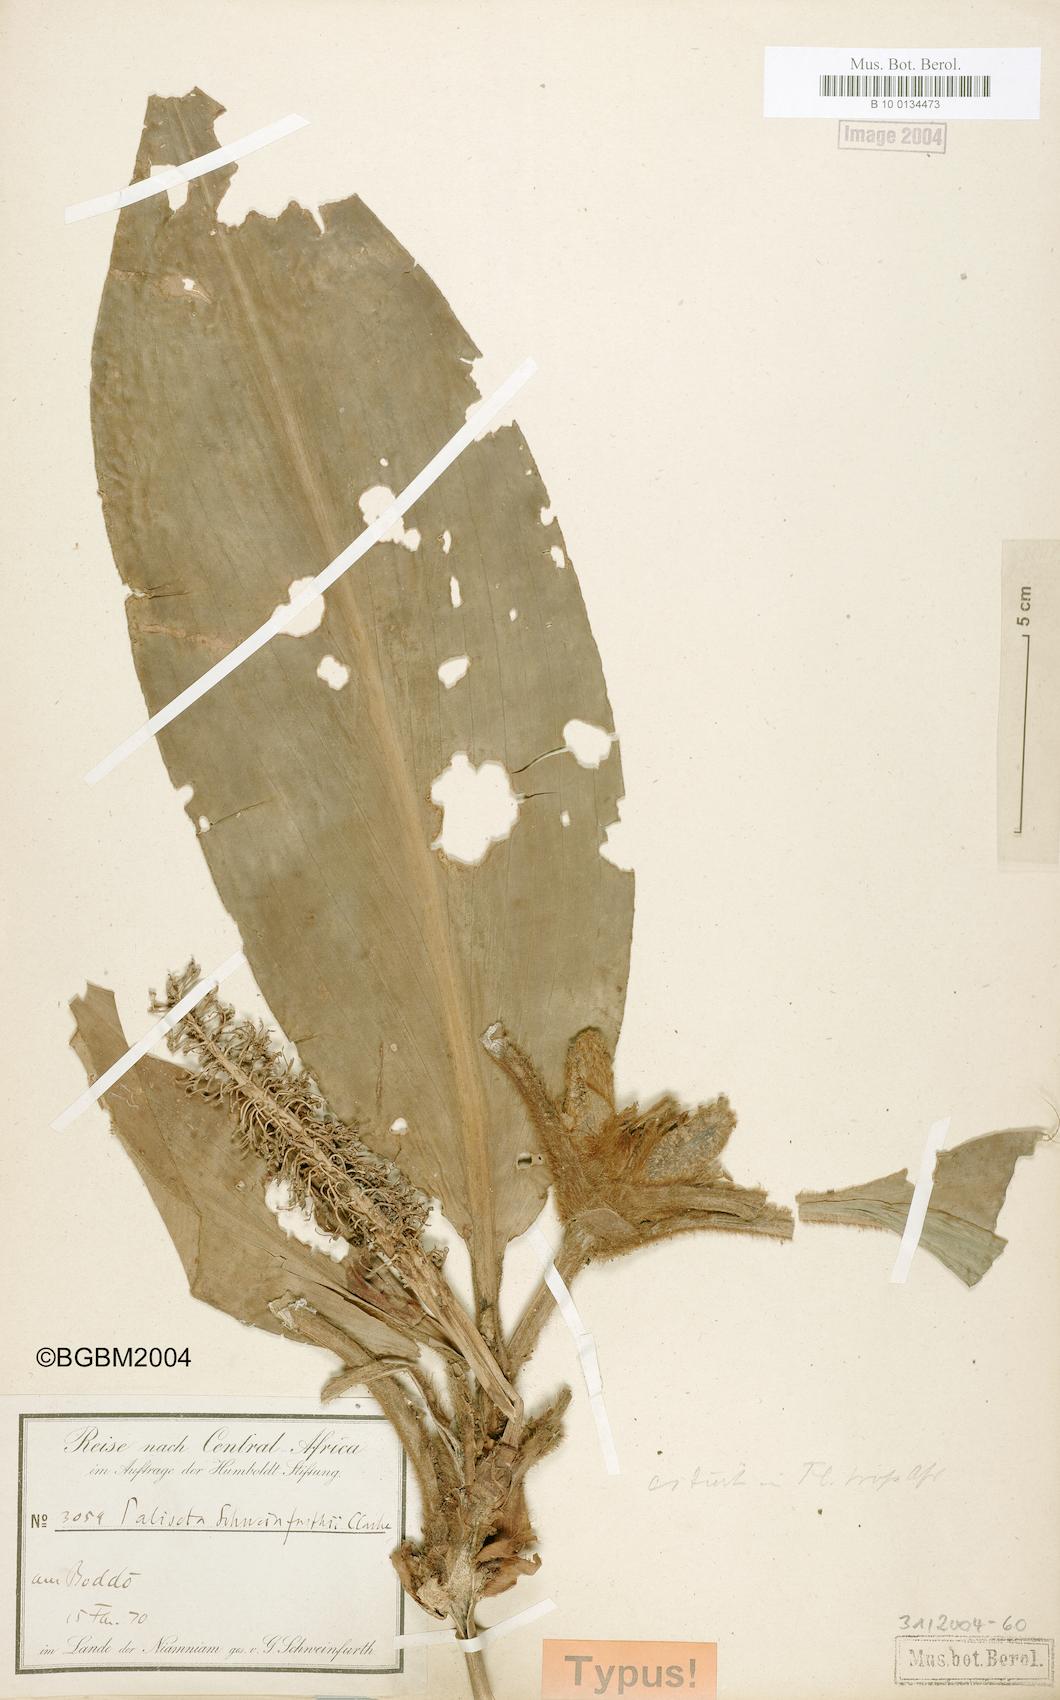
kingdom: Plantae
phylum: Tracheophyta
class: Liliopsida
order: Commelinales
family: Commelinaceae
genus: Palisota
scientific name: Palisota schweinfurthii
